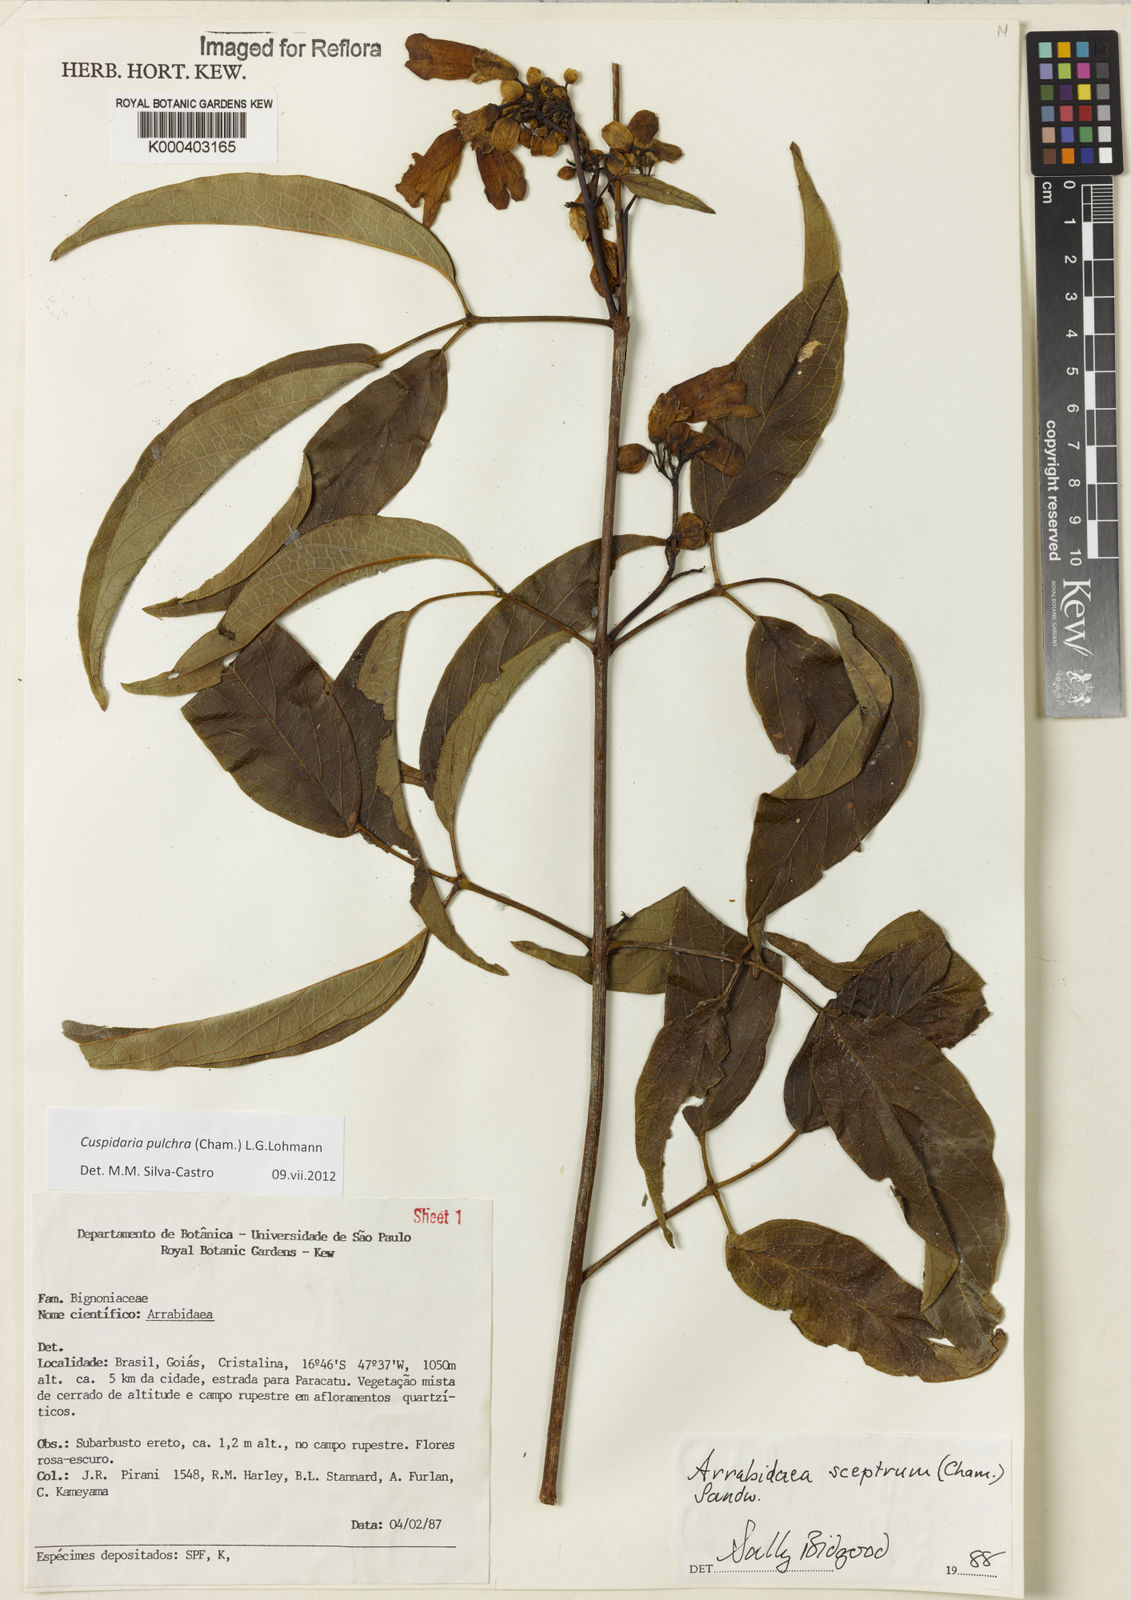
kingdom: Plantae
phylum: Tracheophyta
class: Magnoliopsida
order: Lamiales
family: Bignoniaceae
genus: Cuspidaria
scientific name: Cuspidaria pulchra
